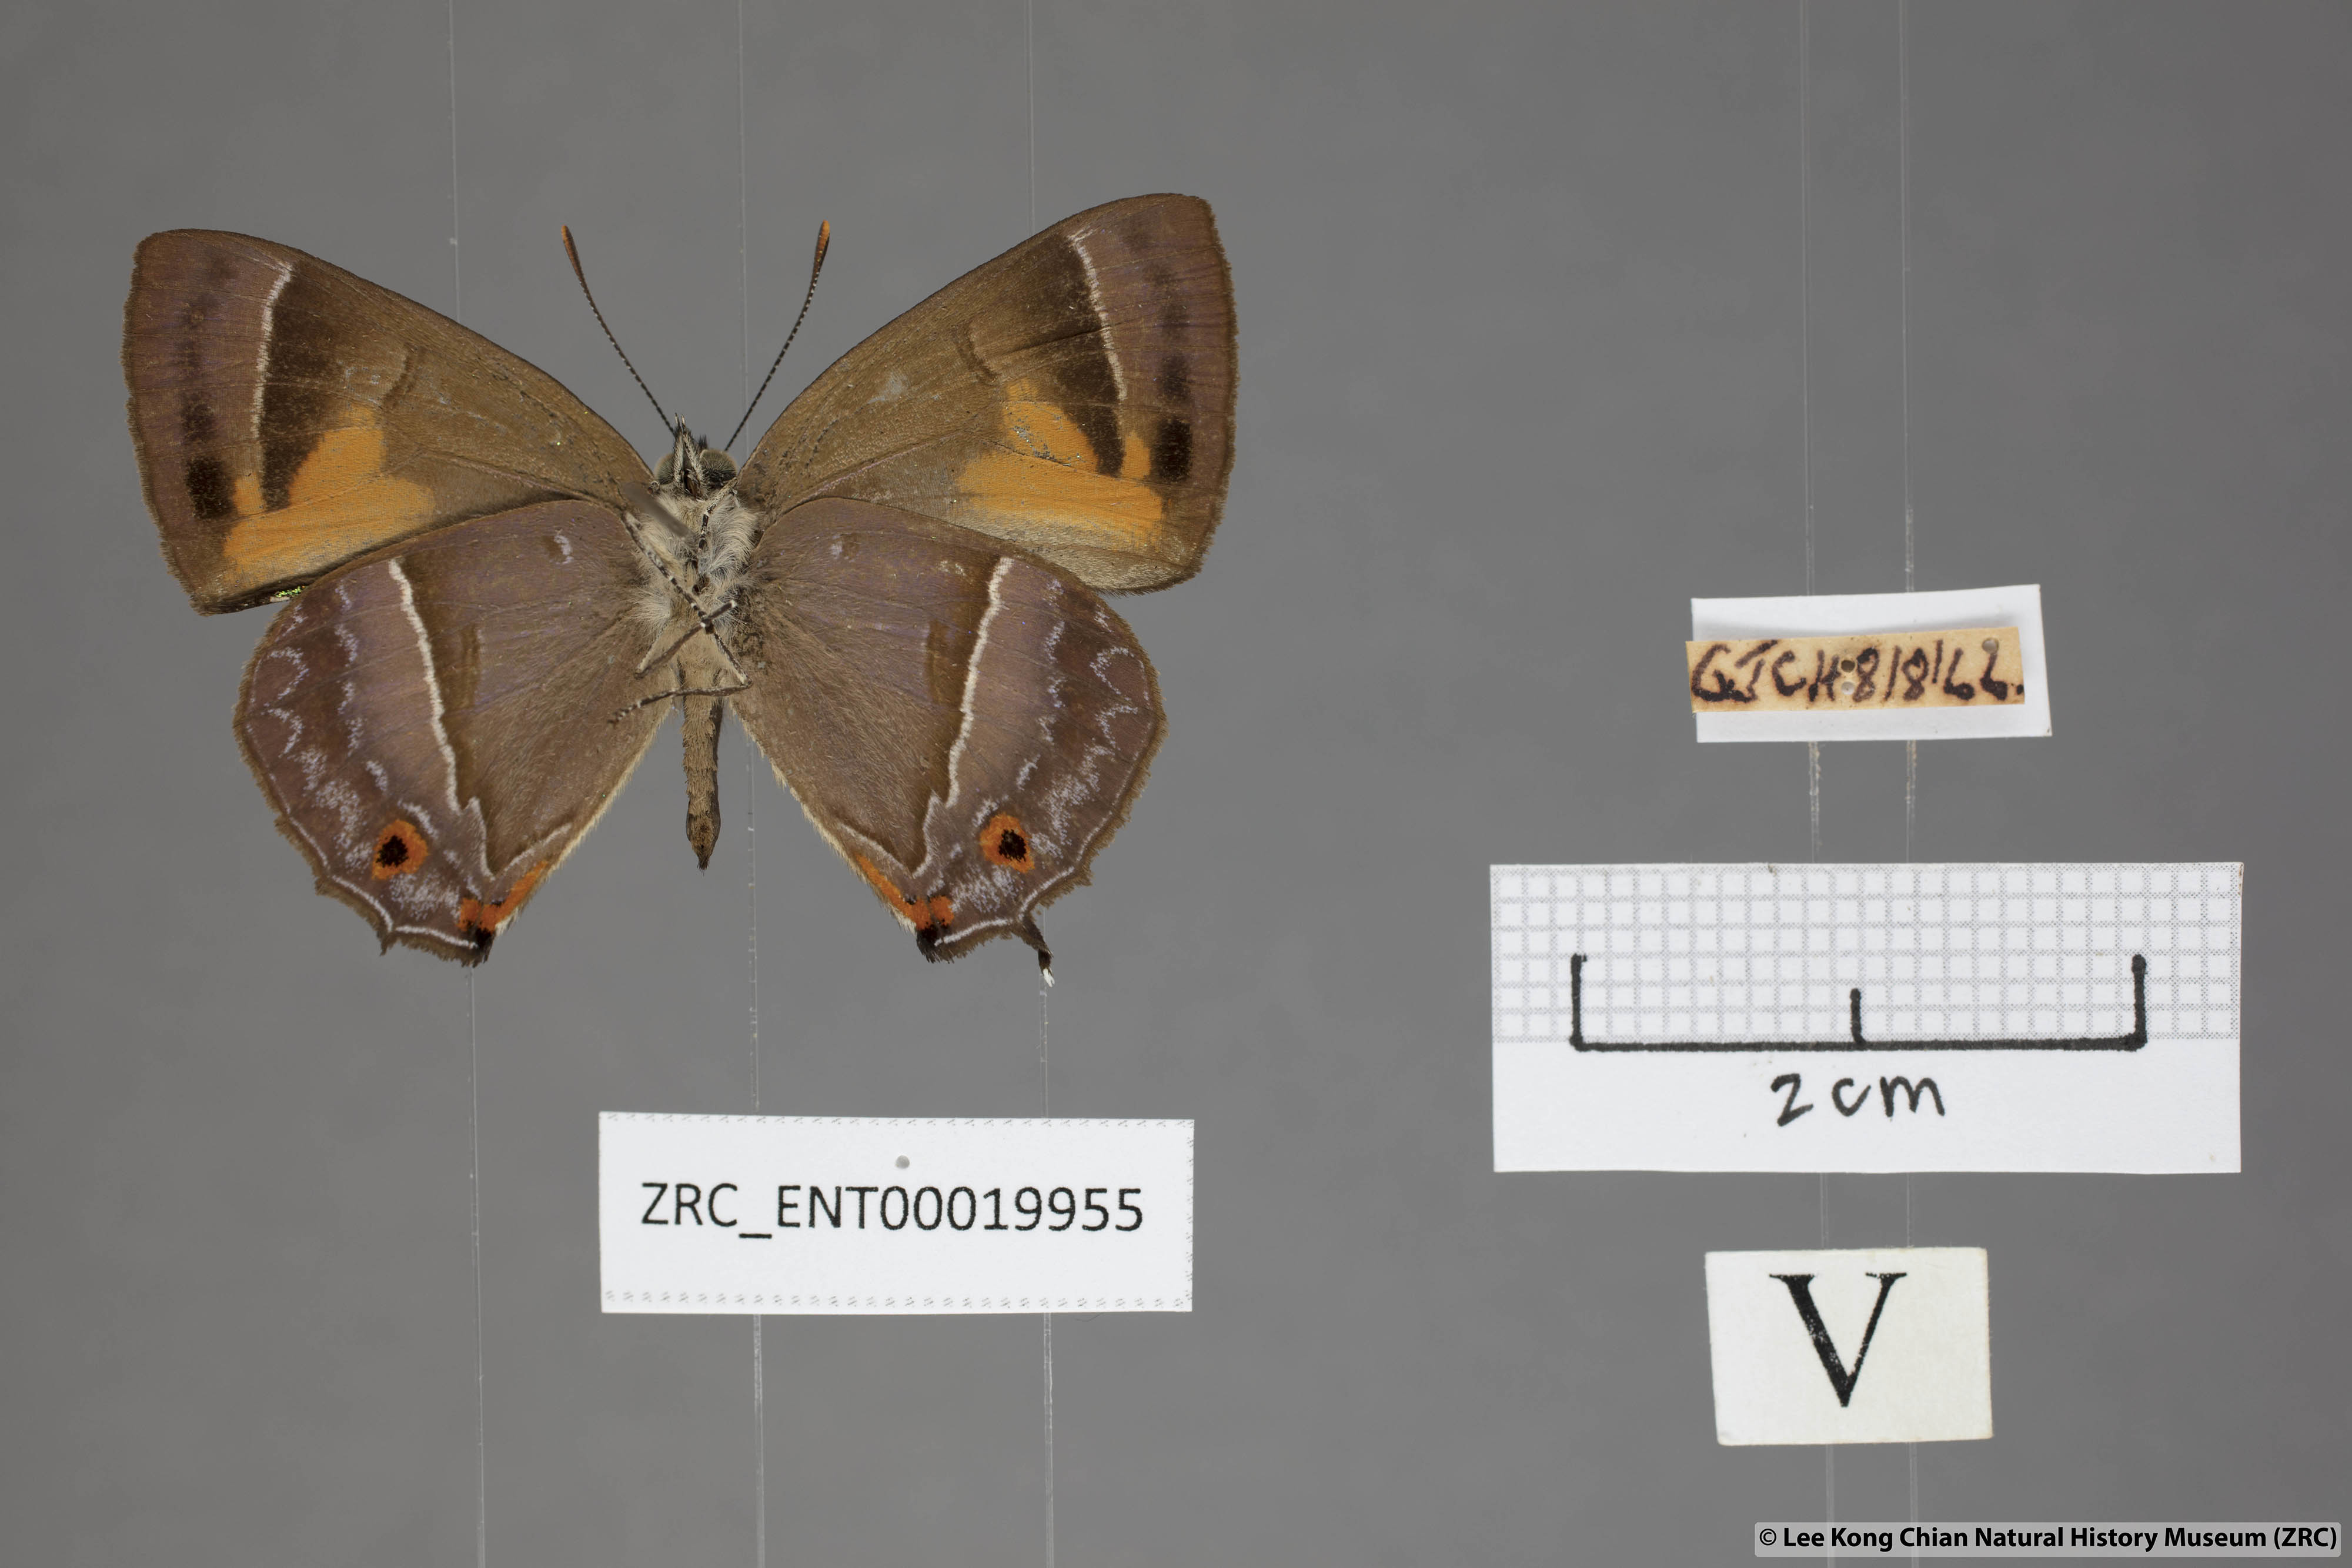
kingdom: Animalia
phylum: Arthropoda
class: Insecta
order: Lepidoptera
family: Lycaenidae
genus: Austrozephyrus
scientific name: Austrozephyrus absolon
